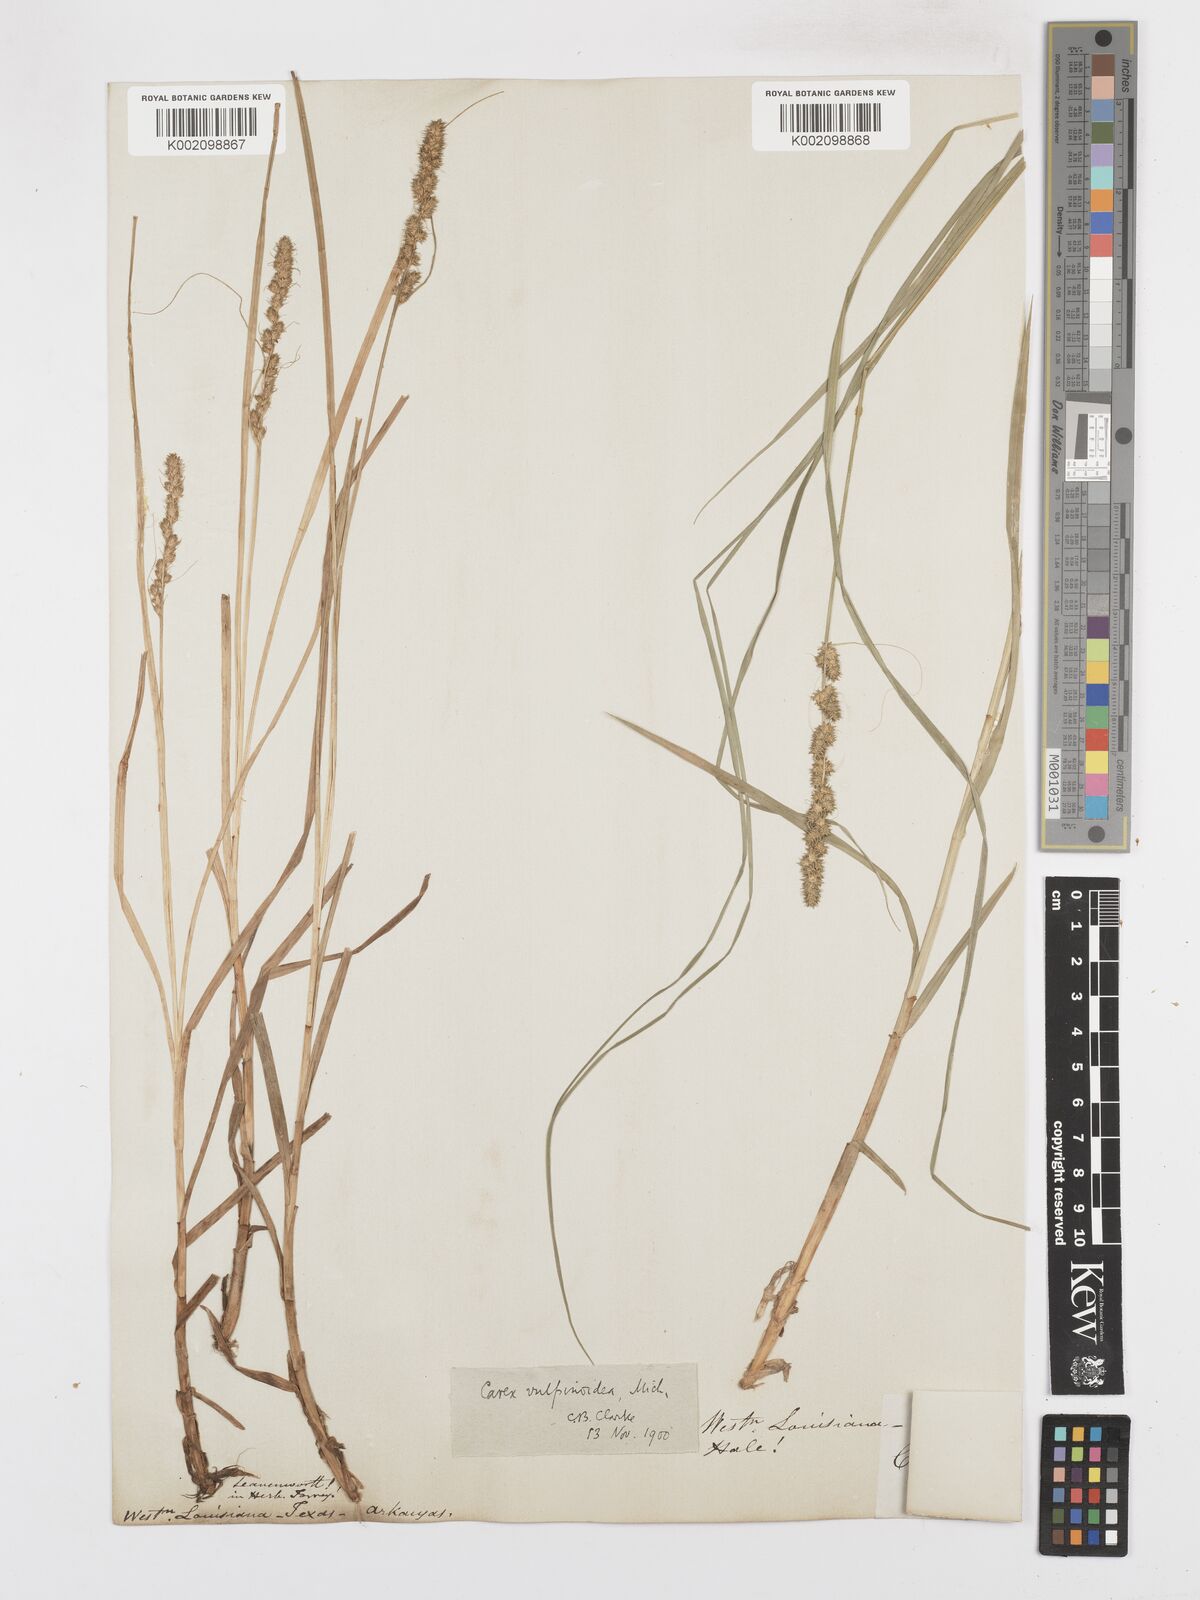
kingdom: Plantae
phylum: Tracheophyta
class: Liliopsida
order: Poales
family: Cyperaceae
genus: Carex
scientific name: Carex vulpinoidea
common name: American fox-sedge
